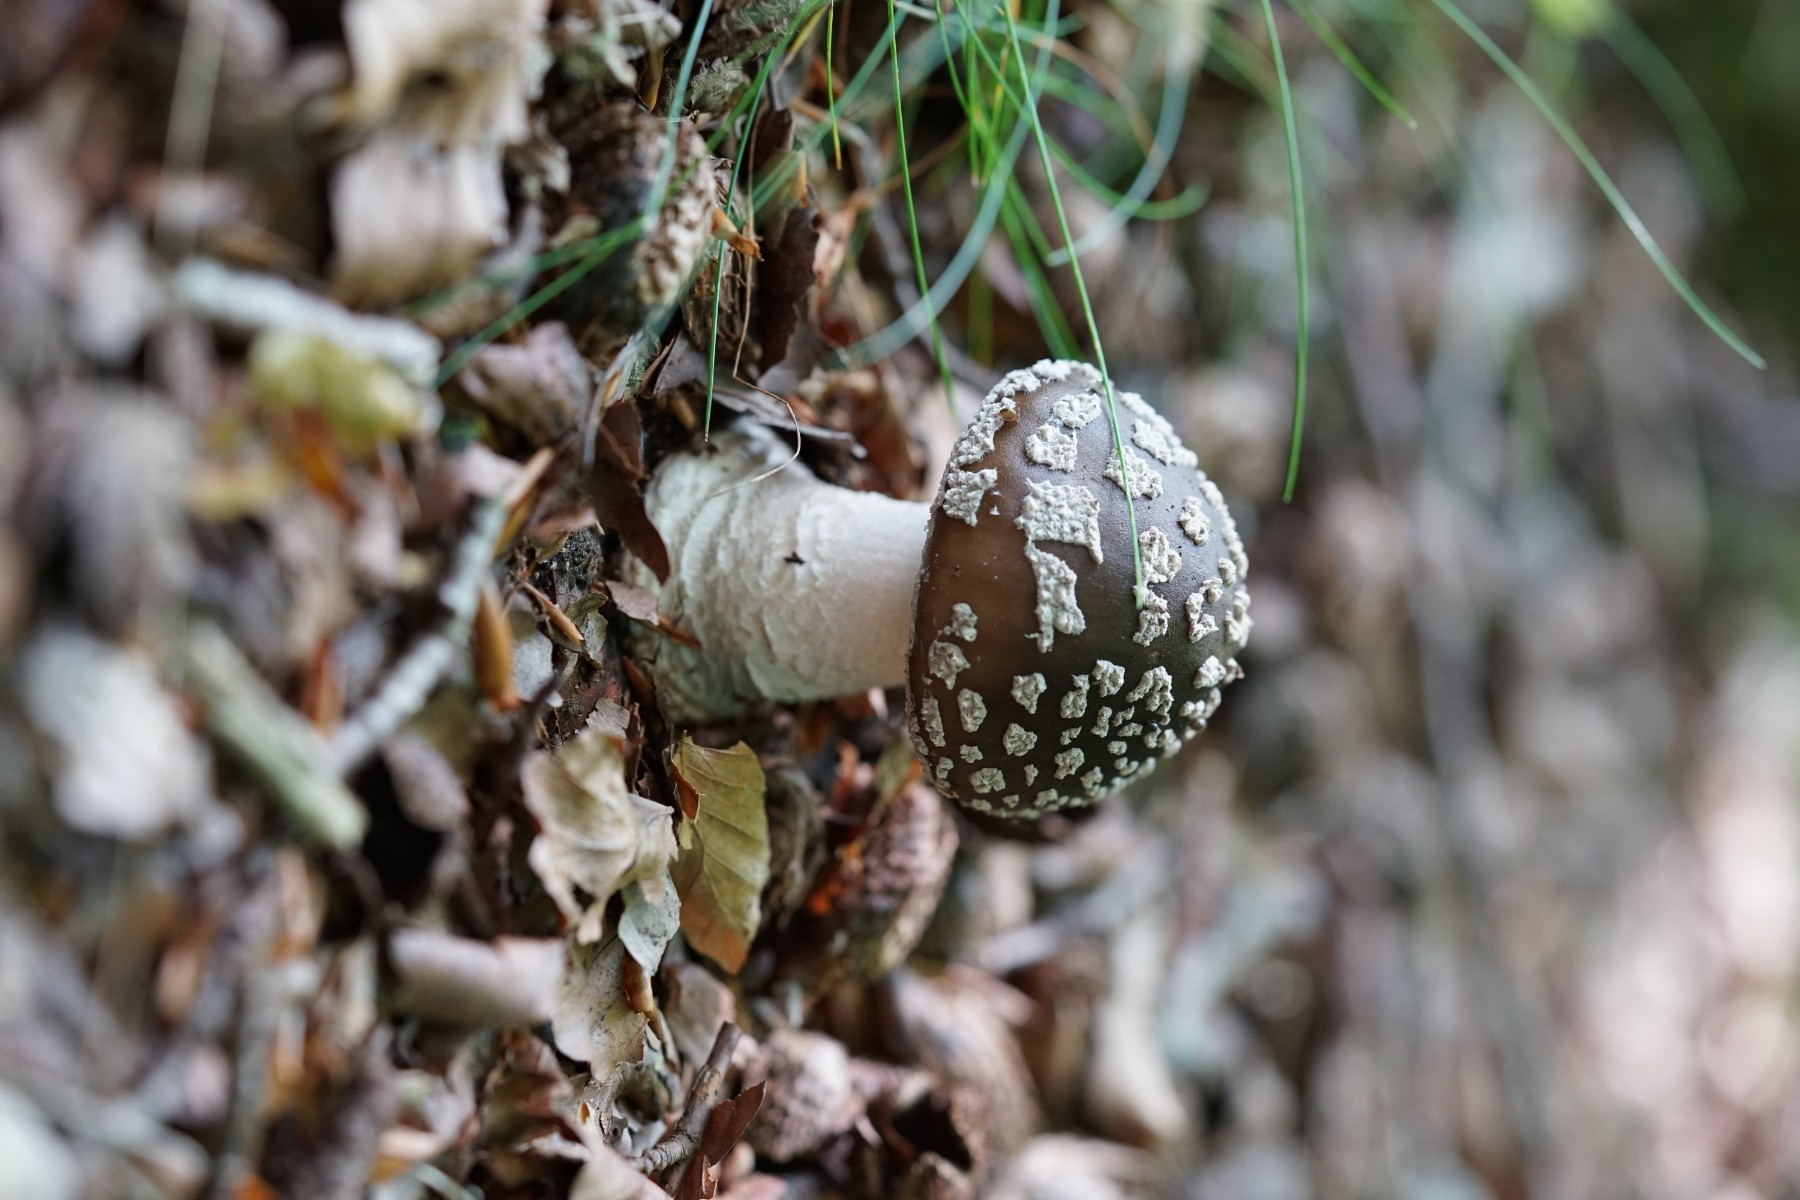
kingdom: Fungi
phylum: Basidiomycota
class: Agaricomycetes
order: Agaricales
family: Amanitaceae
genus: Amanita
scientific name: Amanita
